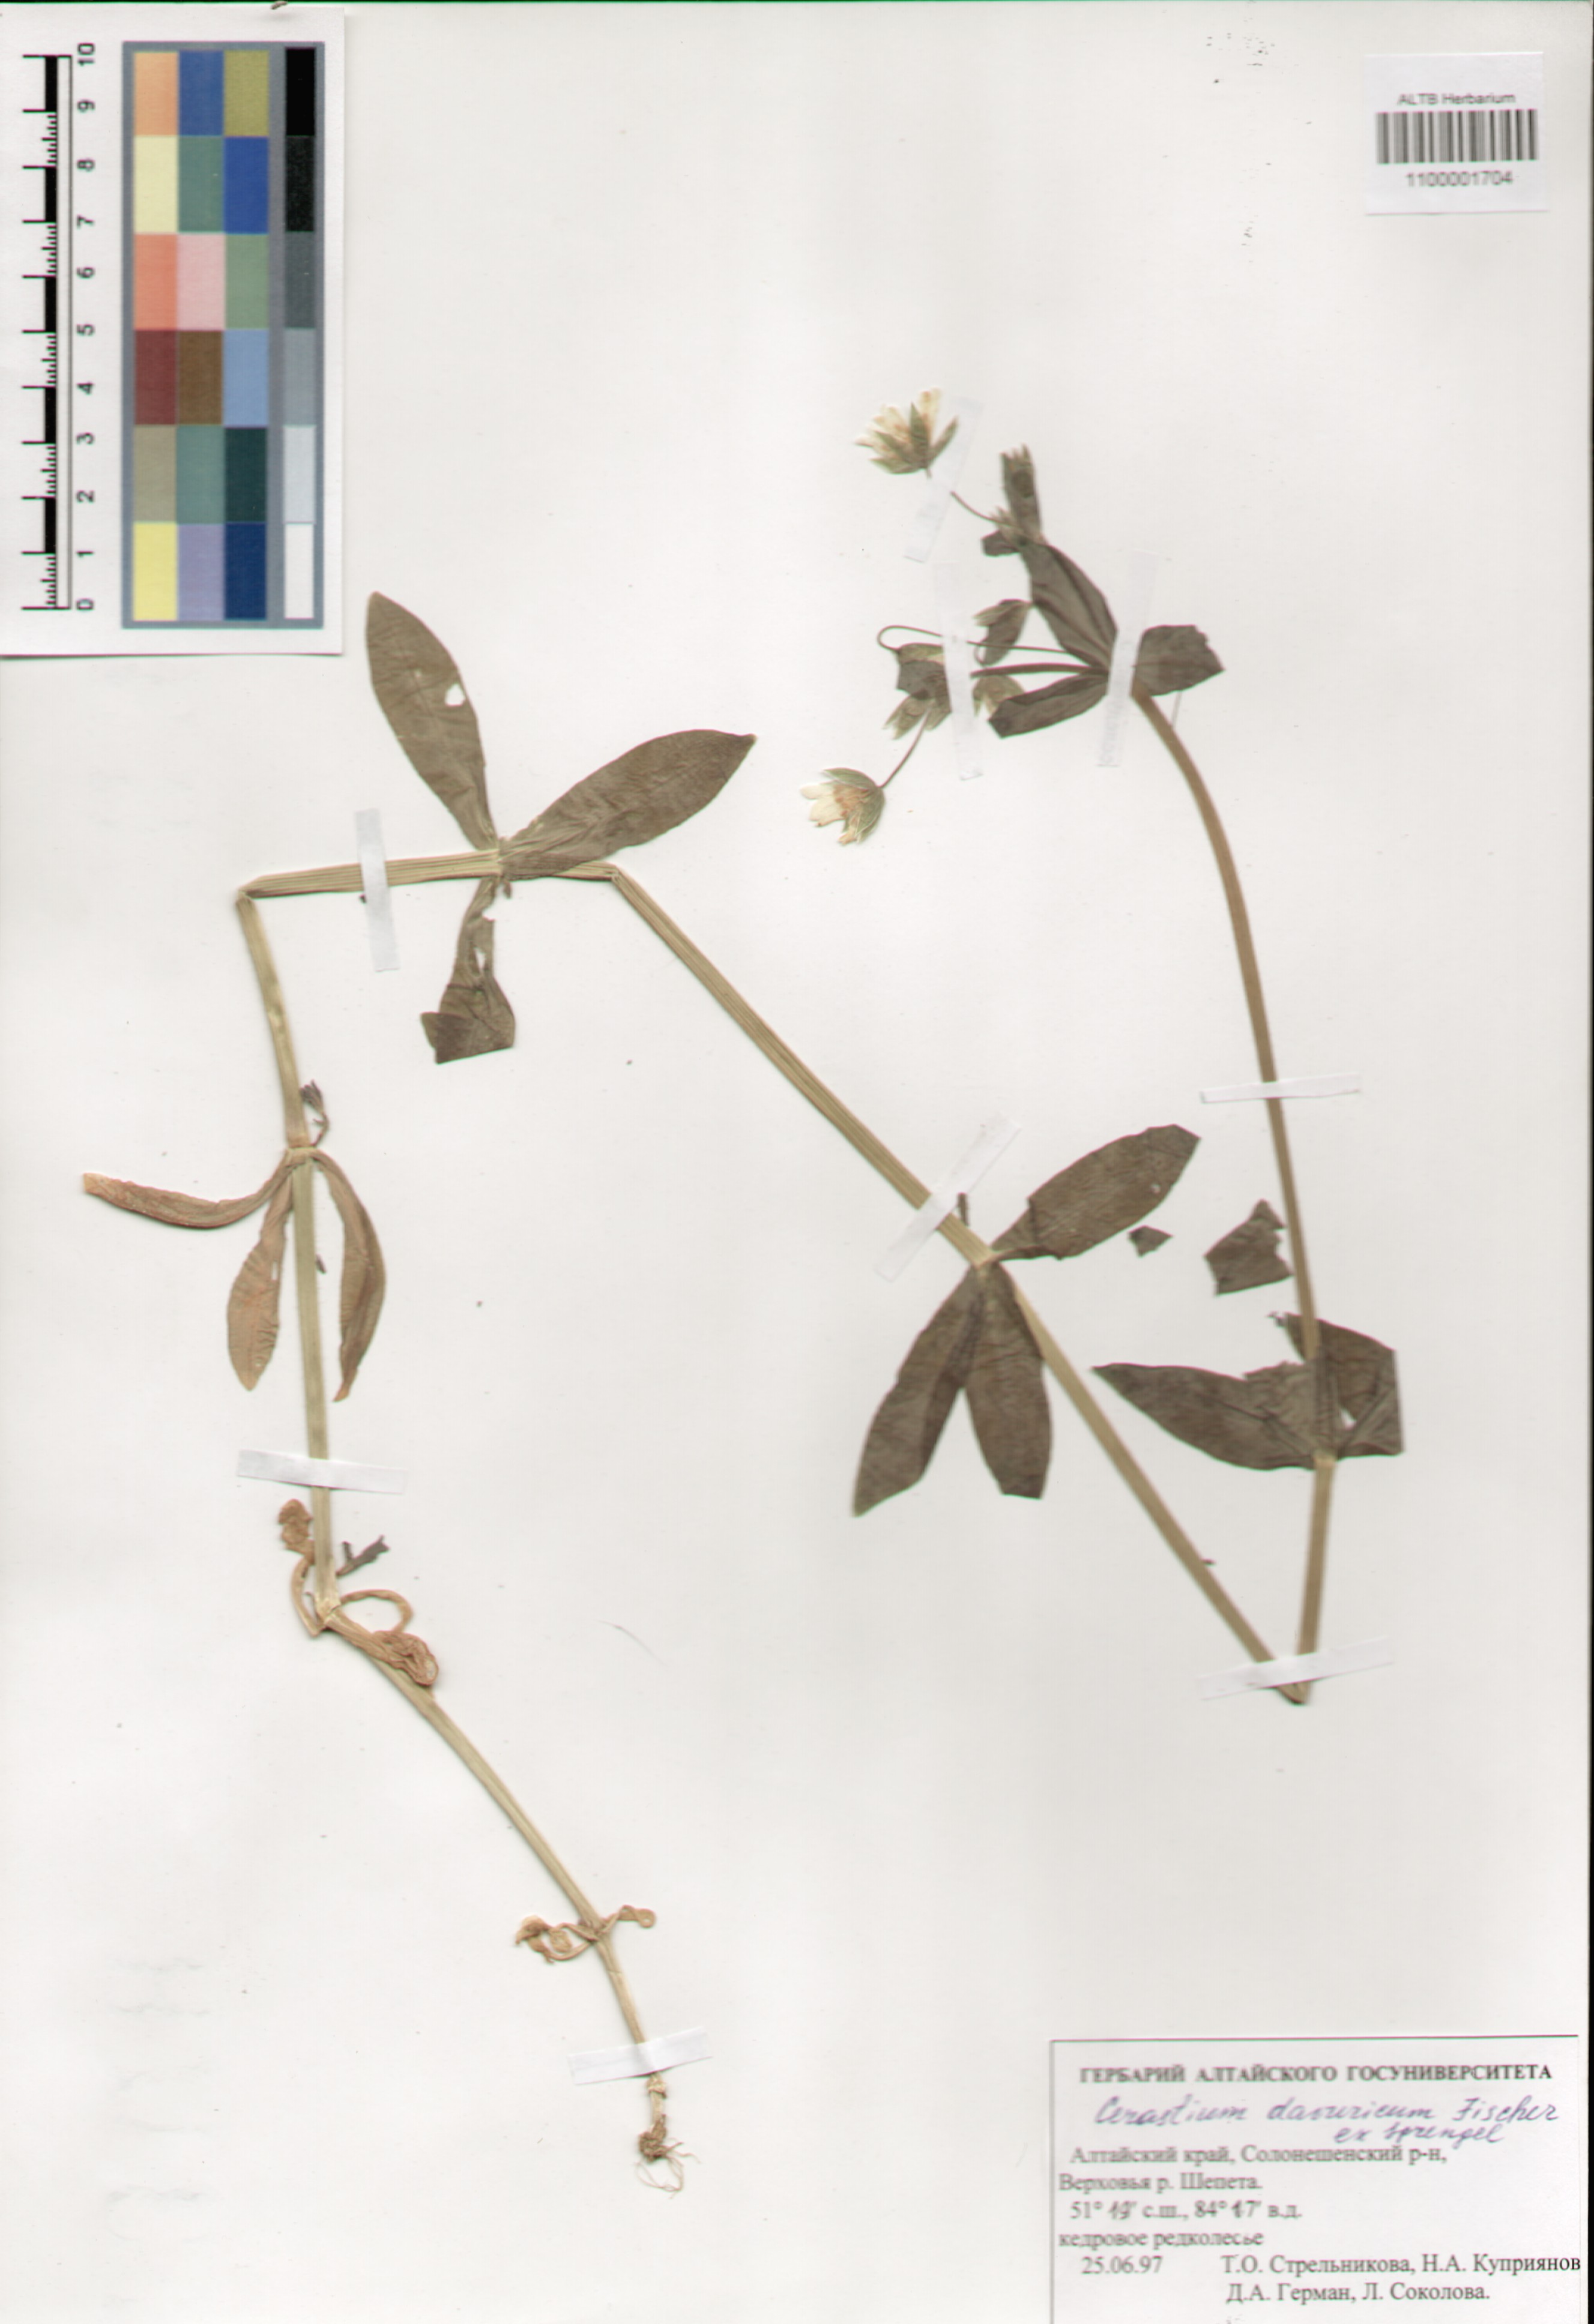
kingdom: Plantae
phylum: Tracheophyta
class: Magnoliopsida
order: Caryophyllales
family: Caryophyllaceae
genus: Dichodon
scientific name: Dichodon davuricum
